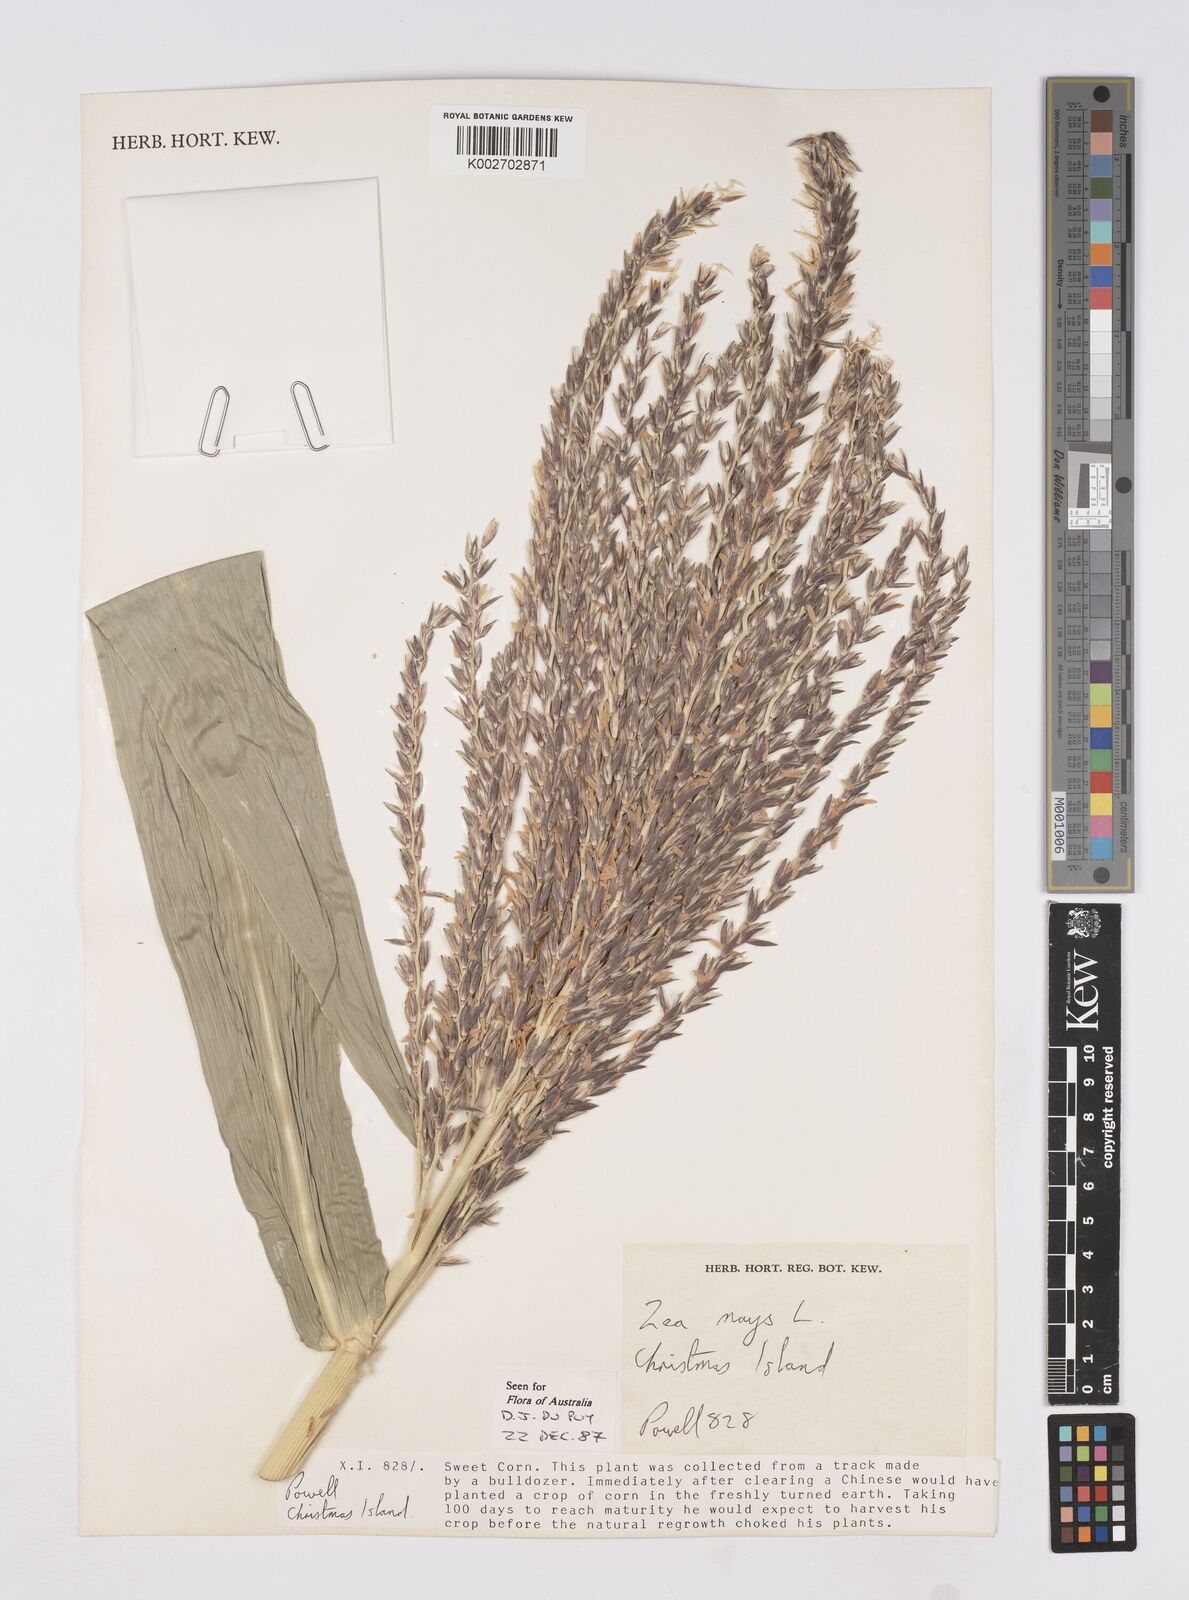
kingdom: Plantae
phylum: Tracheophyta
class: Liliopsida
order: Poales
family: Poaceae
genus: Zea
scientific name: Zea mays
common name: Maize
